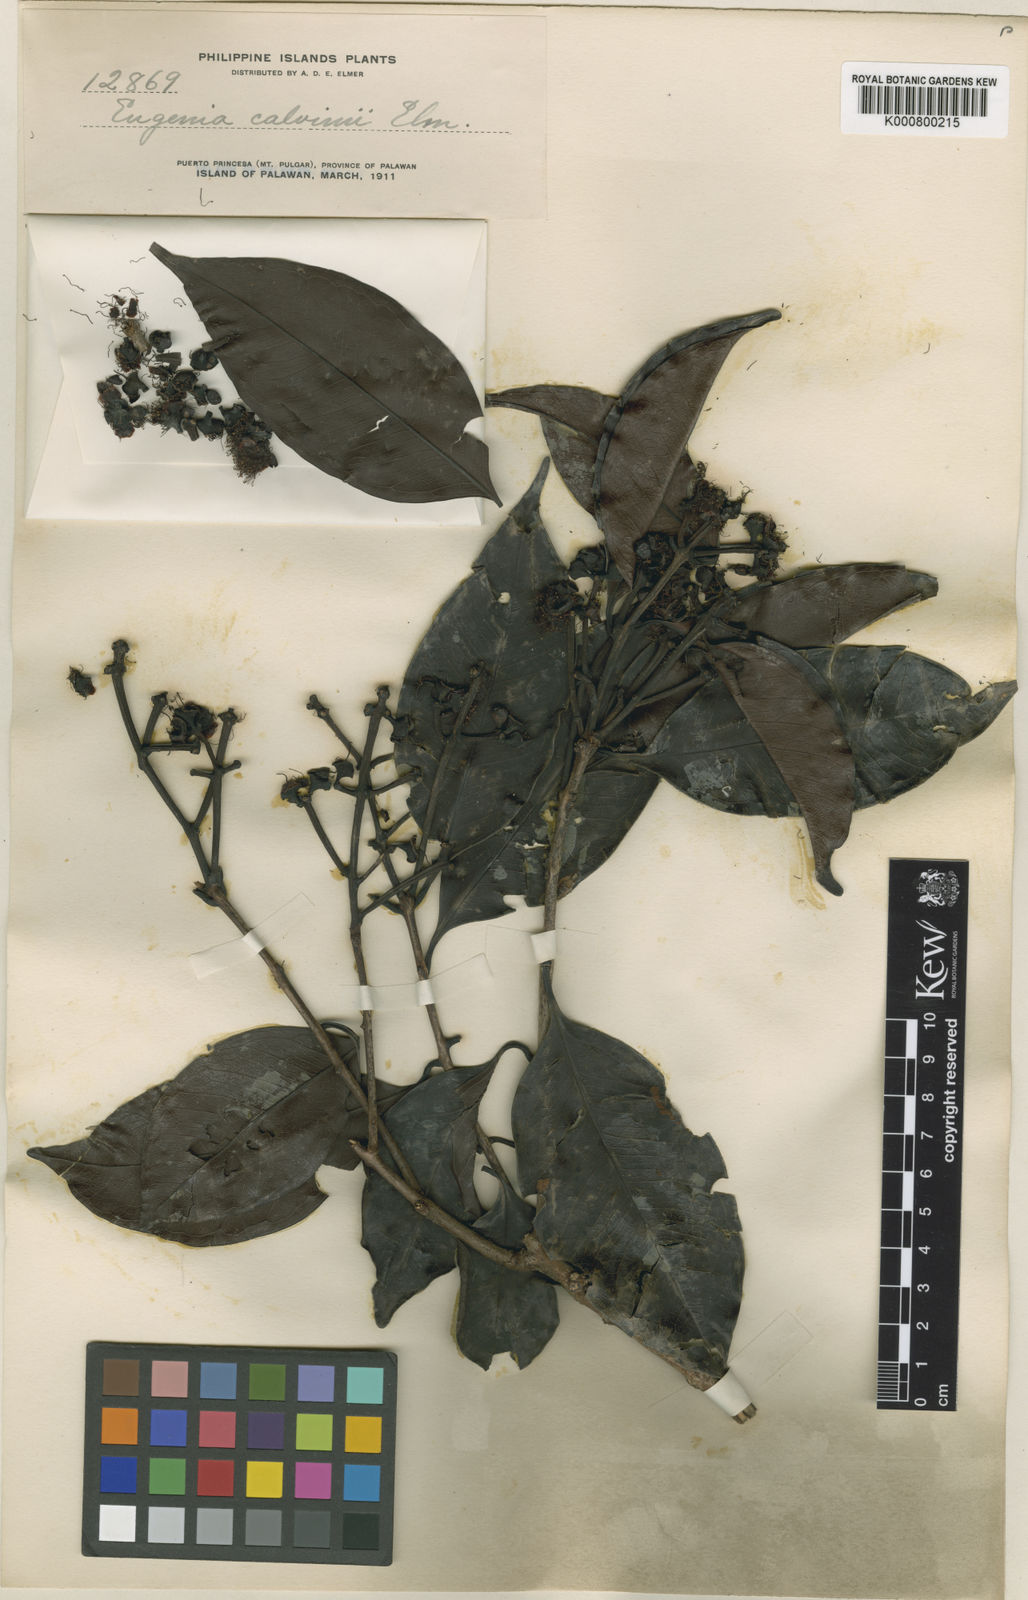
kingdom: Plantae
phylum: Tracheophyta
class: Magnoliopsida
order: Myrtales
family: Myrtaceae
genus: Syzygium
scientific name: Syzygium confertum
